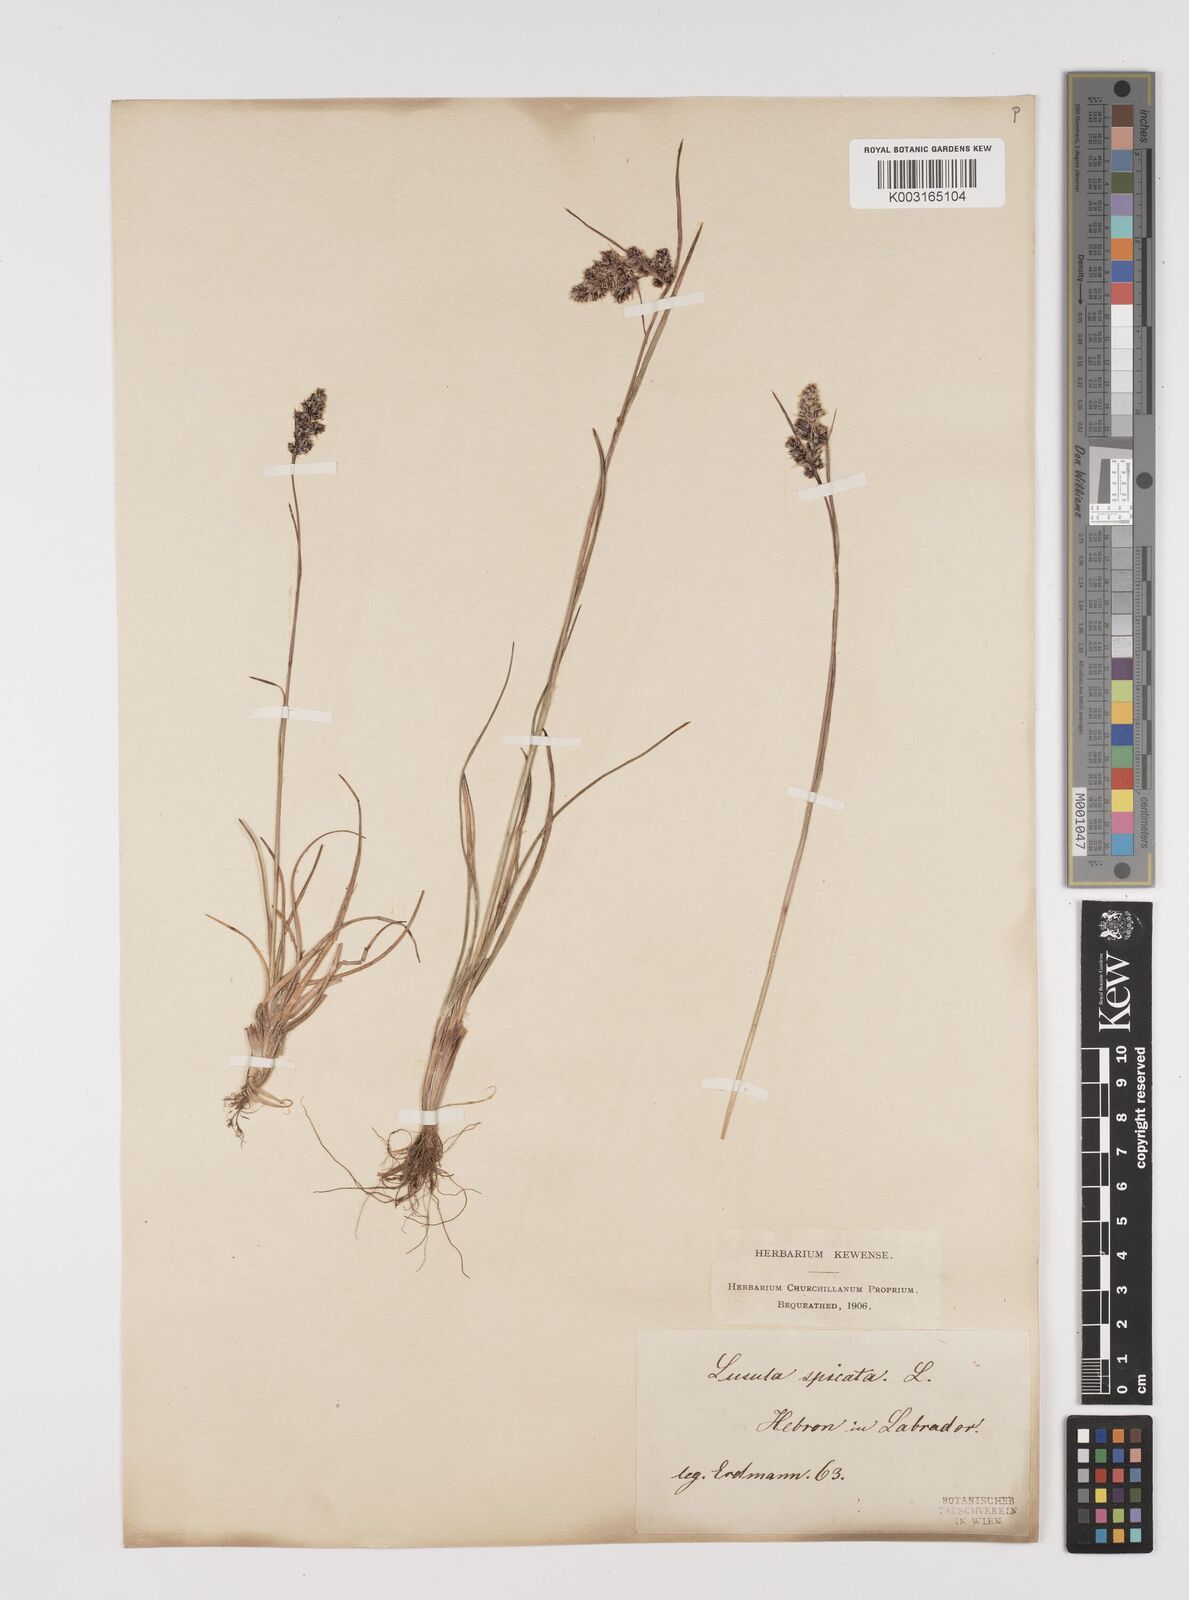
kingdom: Plantae
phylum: Tracheophyta
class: Liliopsida
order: Poales
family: Juncaceae
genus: Luzula
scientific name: Luzula spicata
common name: Spiked wood-rush
